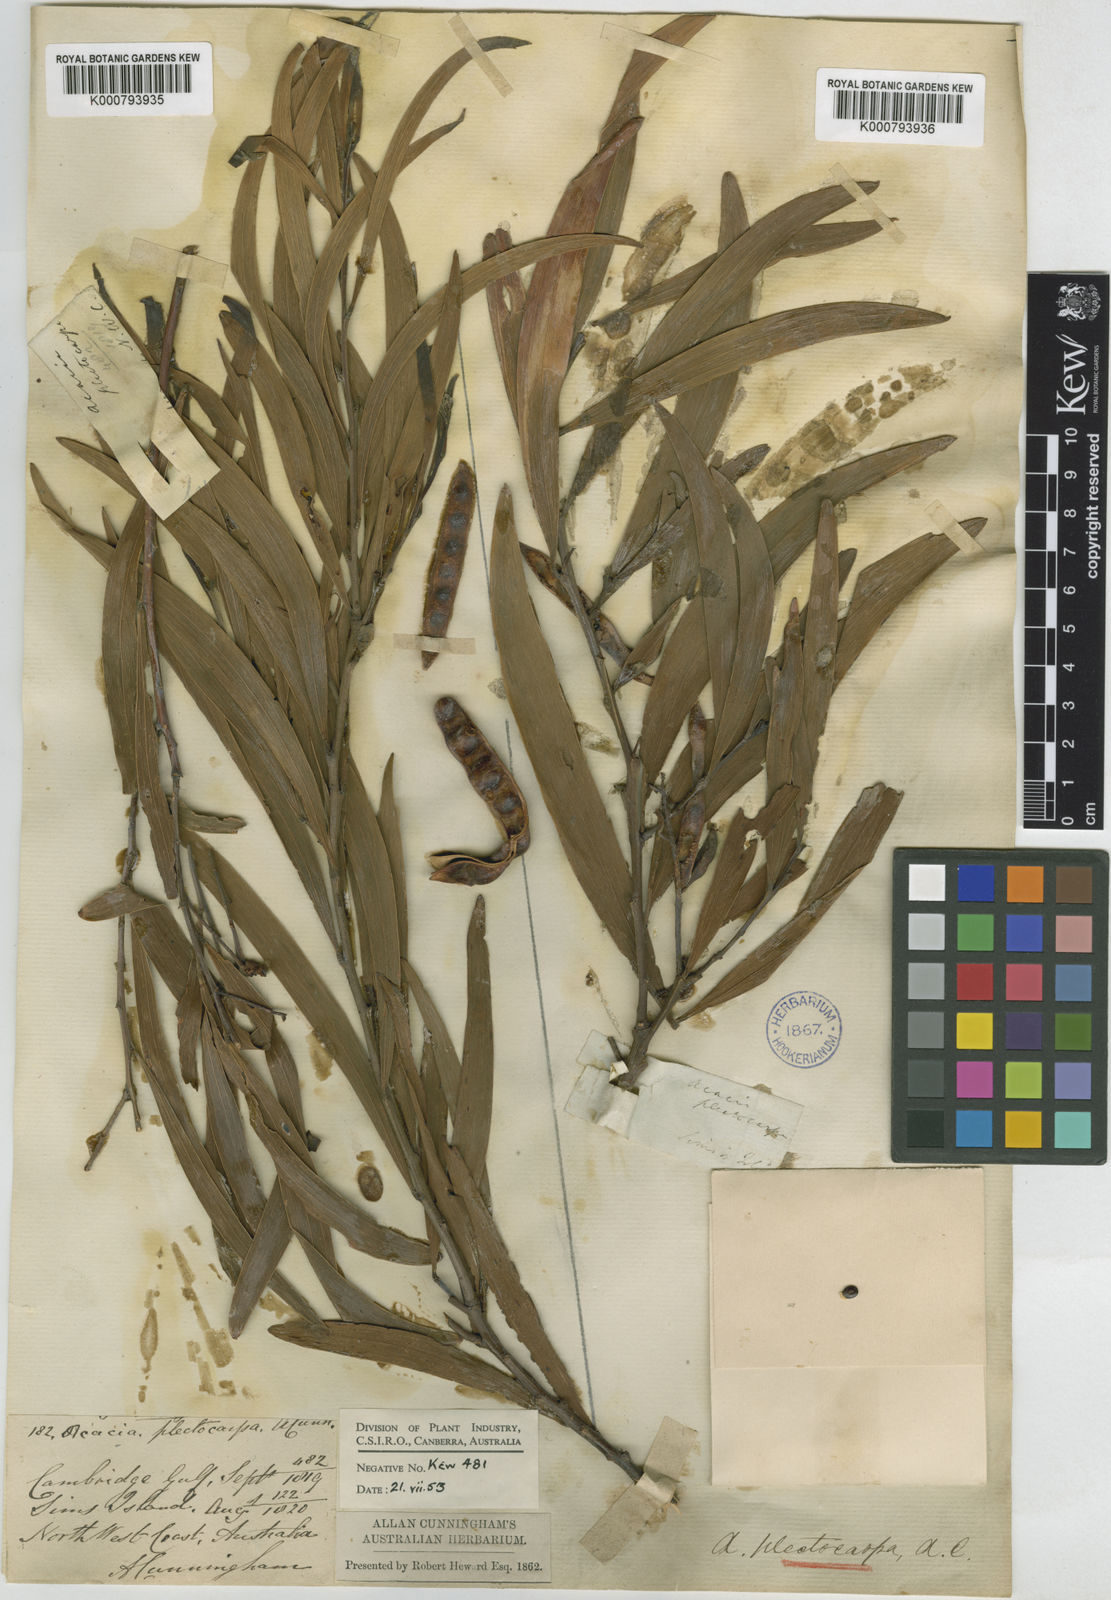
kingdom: Plantae
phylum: Tracheophyta
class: Magnoliopsida
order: Fabales
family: Fabaceae
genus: Acacia
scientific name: Acacia plectocarpa
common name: Black wattle
